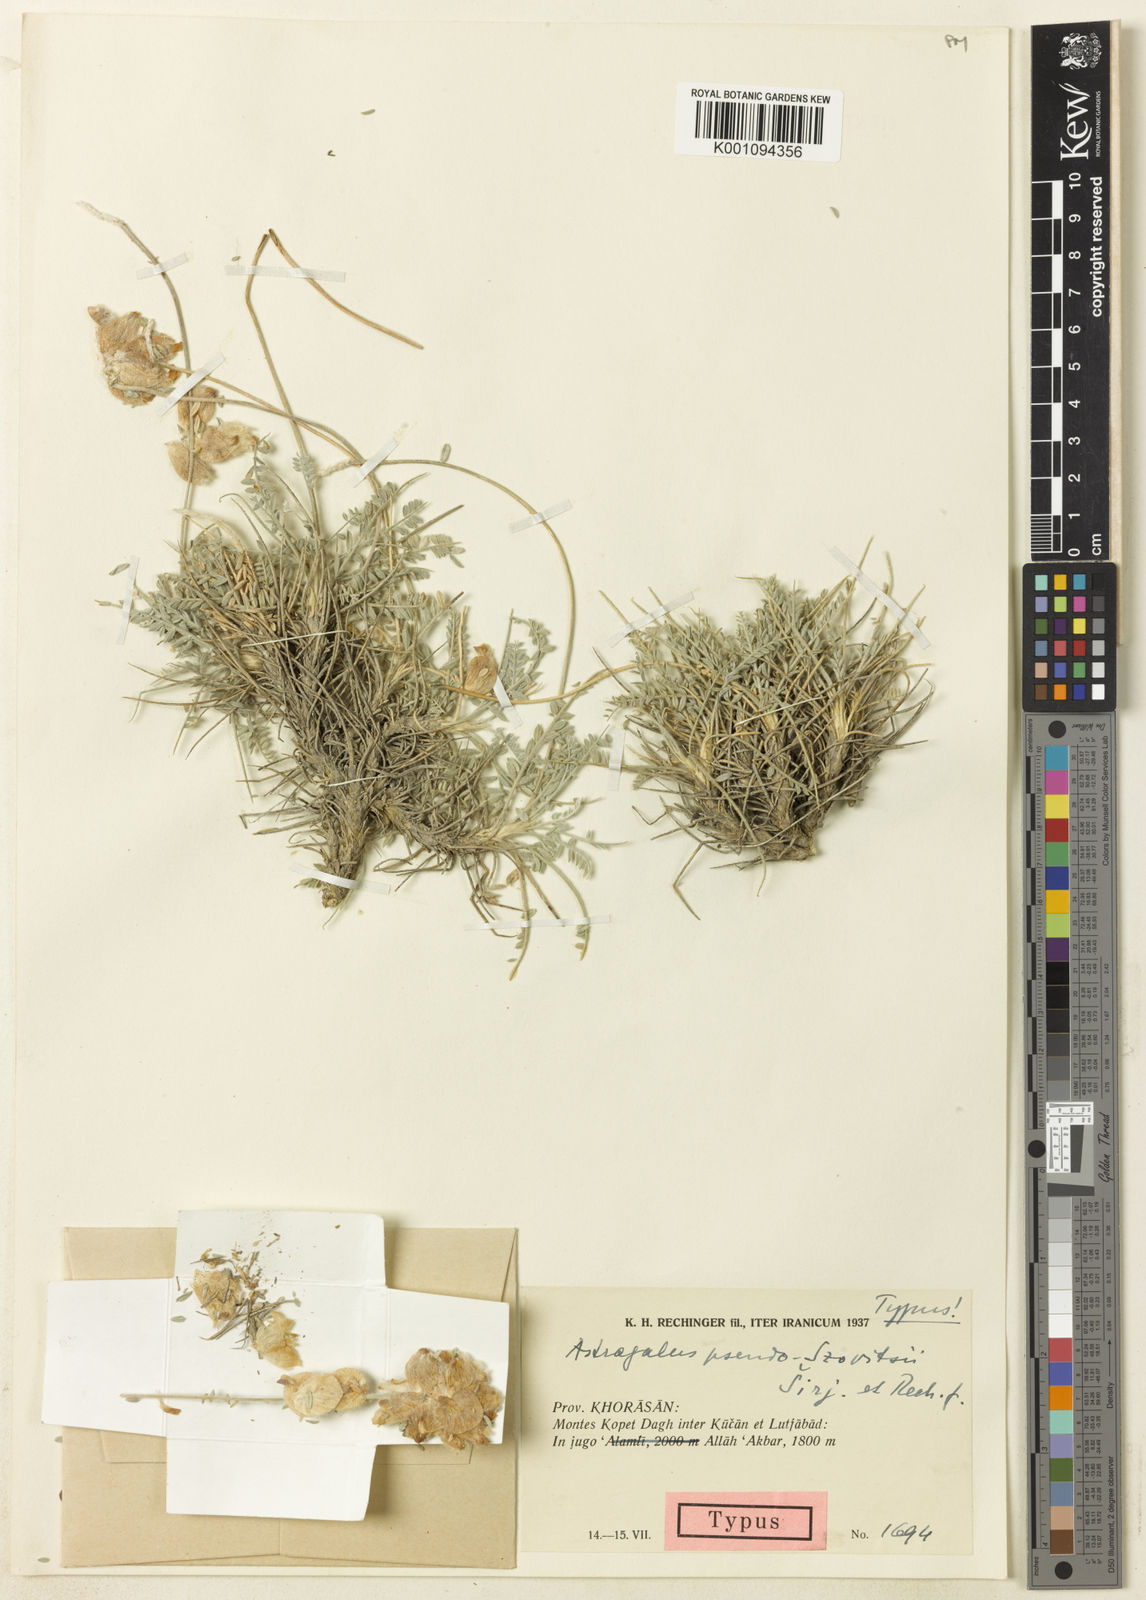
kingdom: Plantae
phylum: Tracheophyta
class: Magnoliopsida
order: Fabales
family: Fabaceae
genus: Astragalus
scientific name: Astragalus
